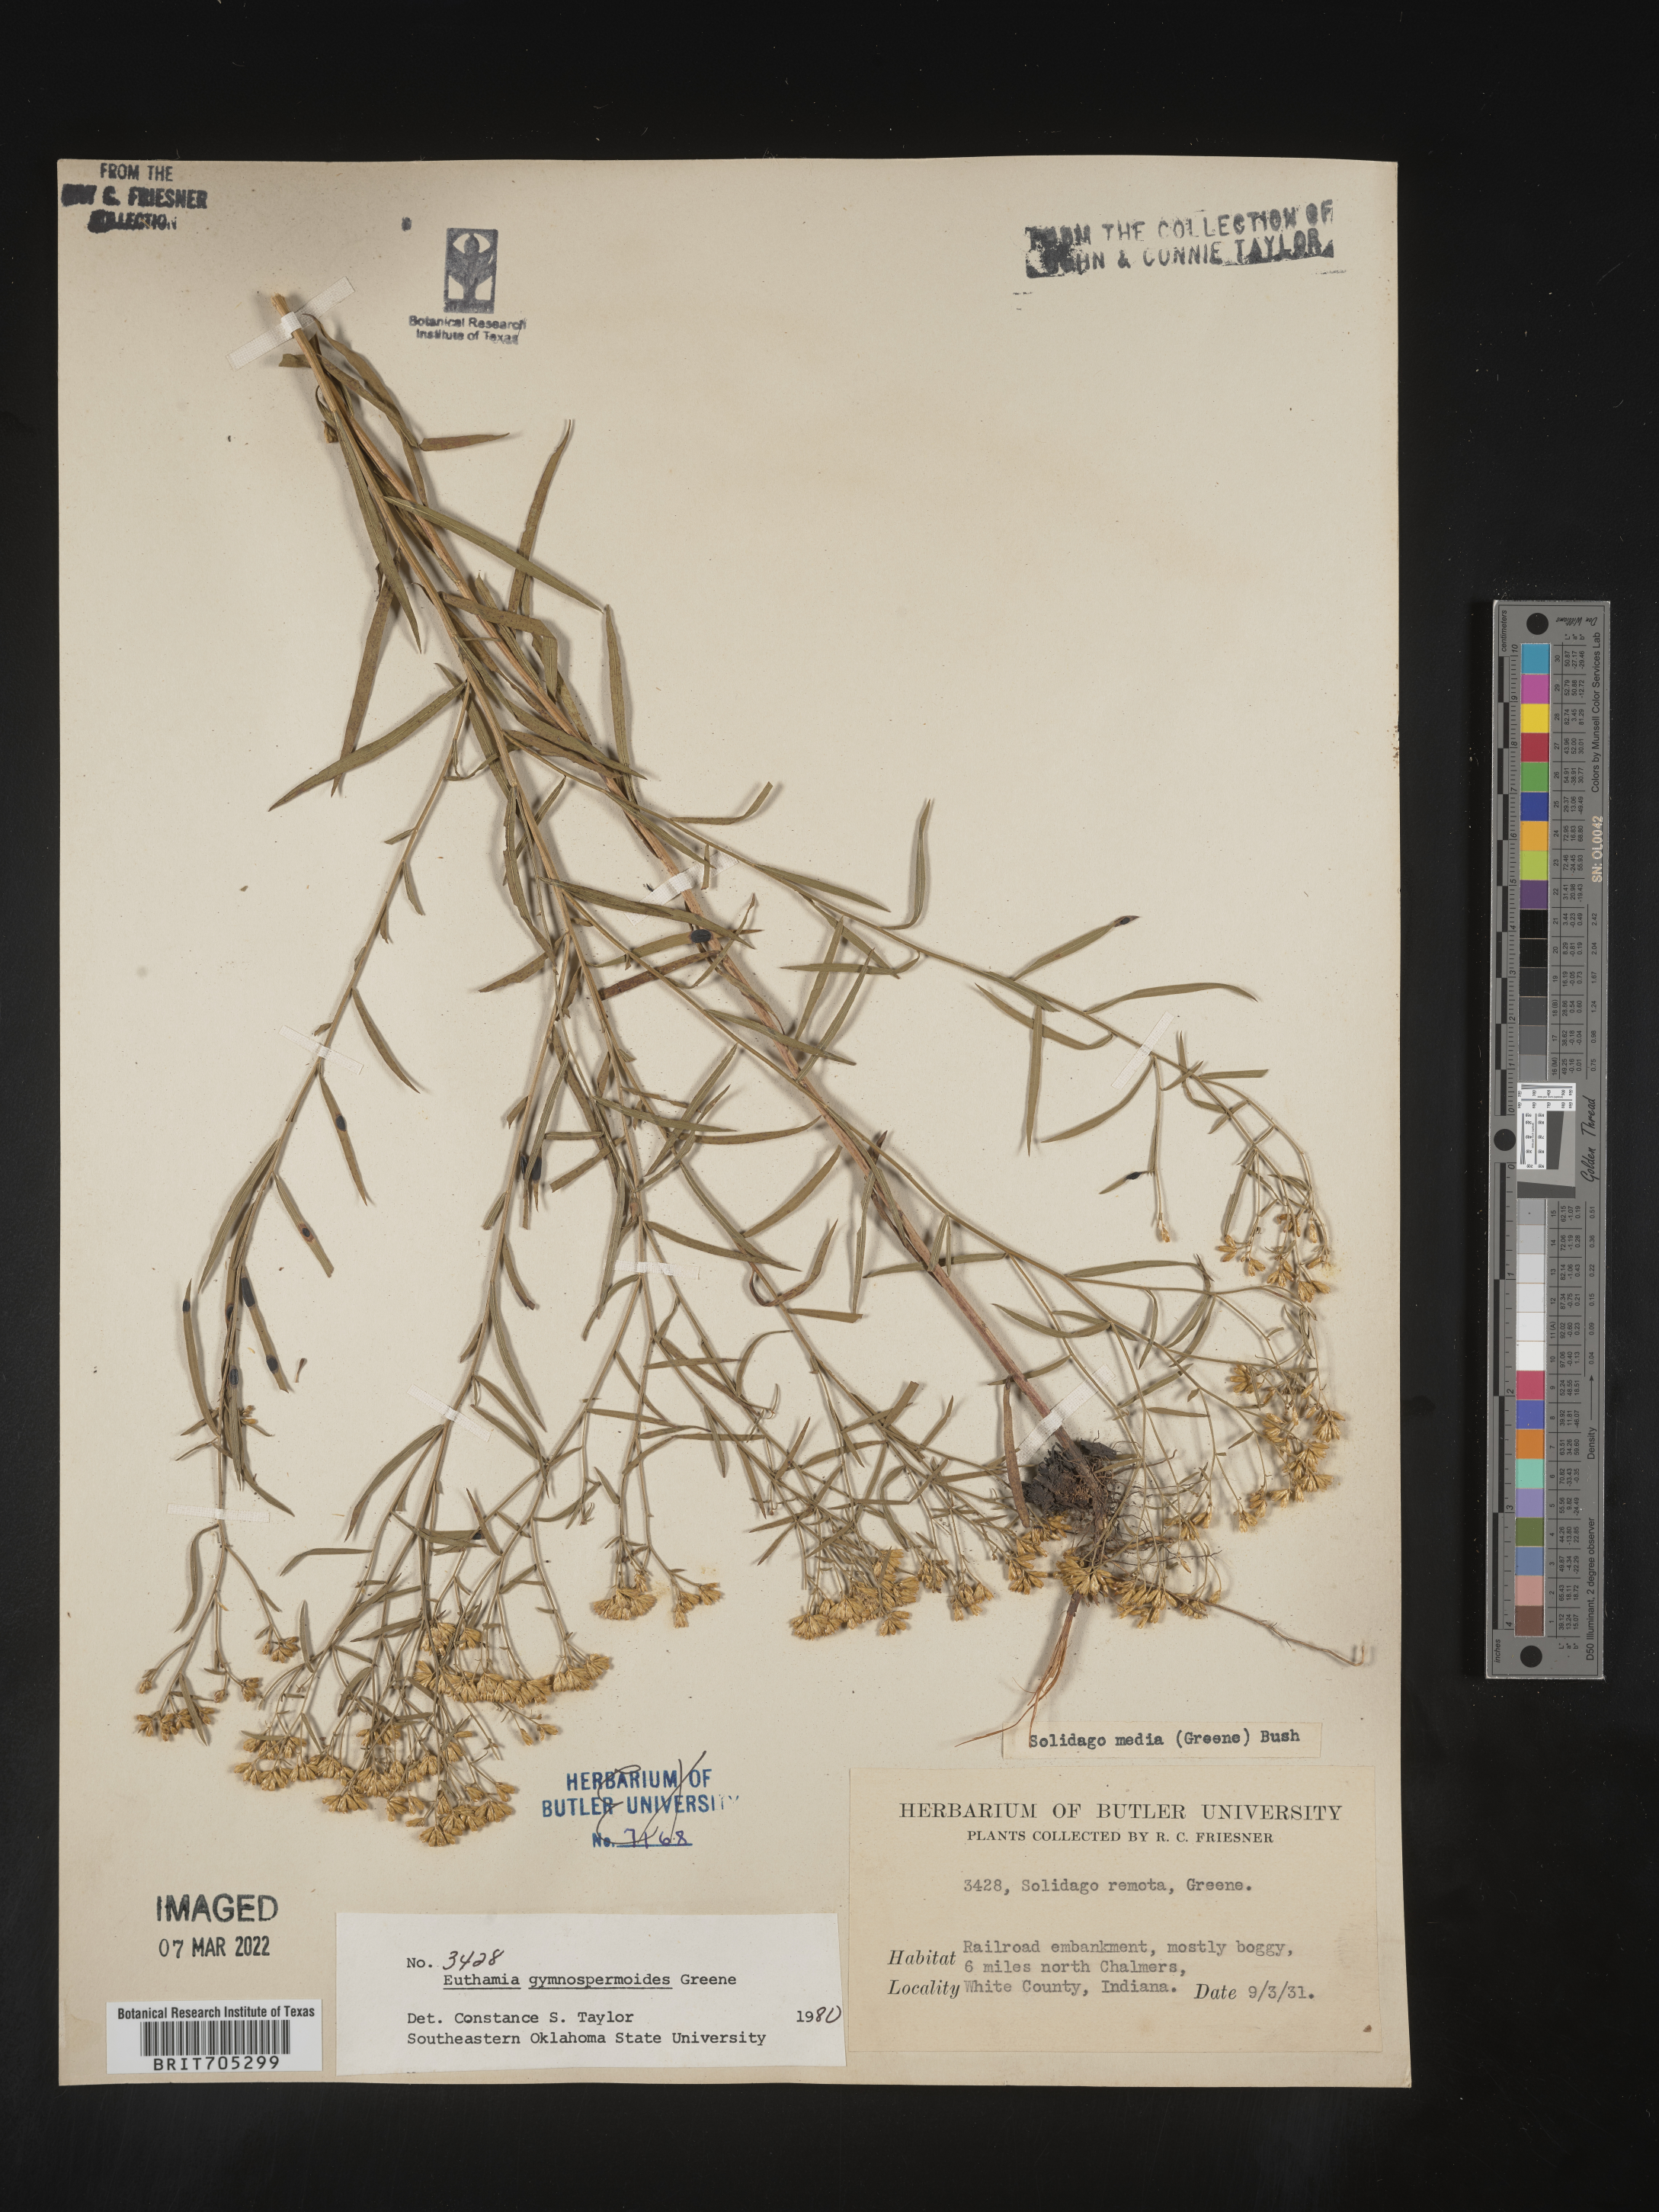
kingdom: Plantae
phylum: Tracheophyta
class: Magnoliopsida
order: Asterales
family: Asteraceae
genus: Euthamia
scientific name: Euthamia gymnospermoides
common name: Great plains goldentop
